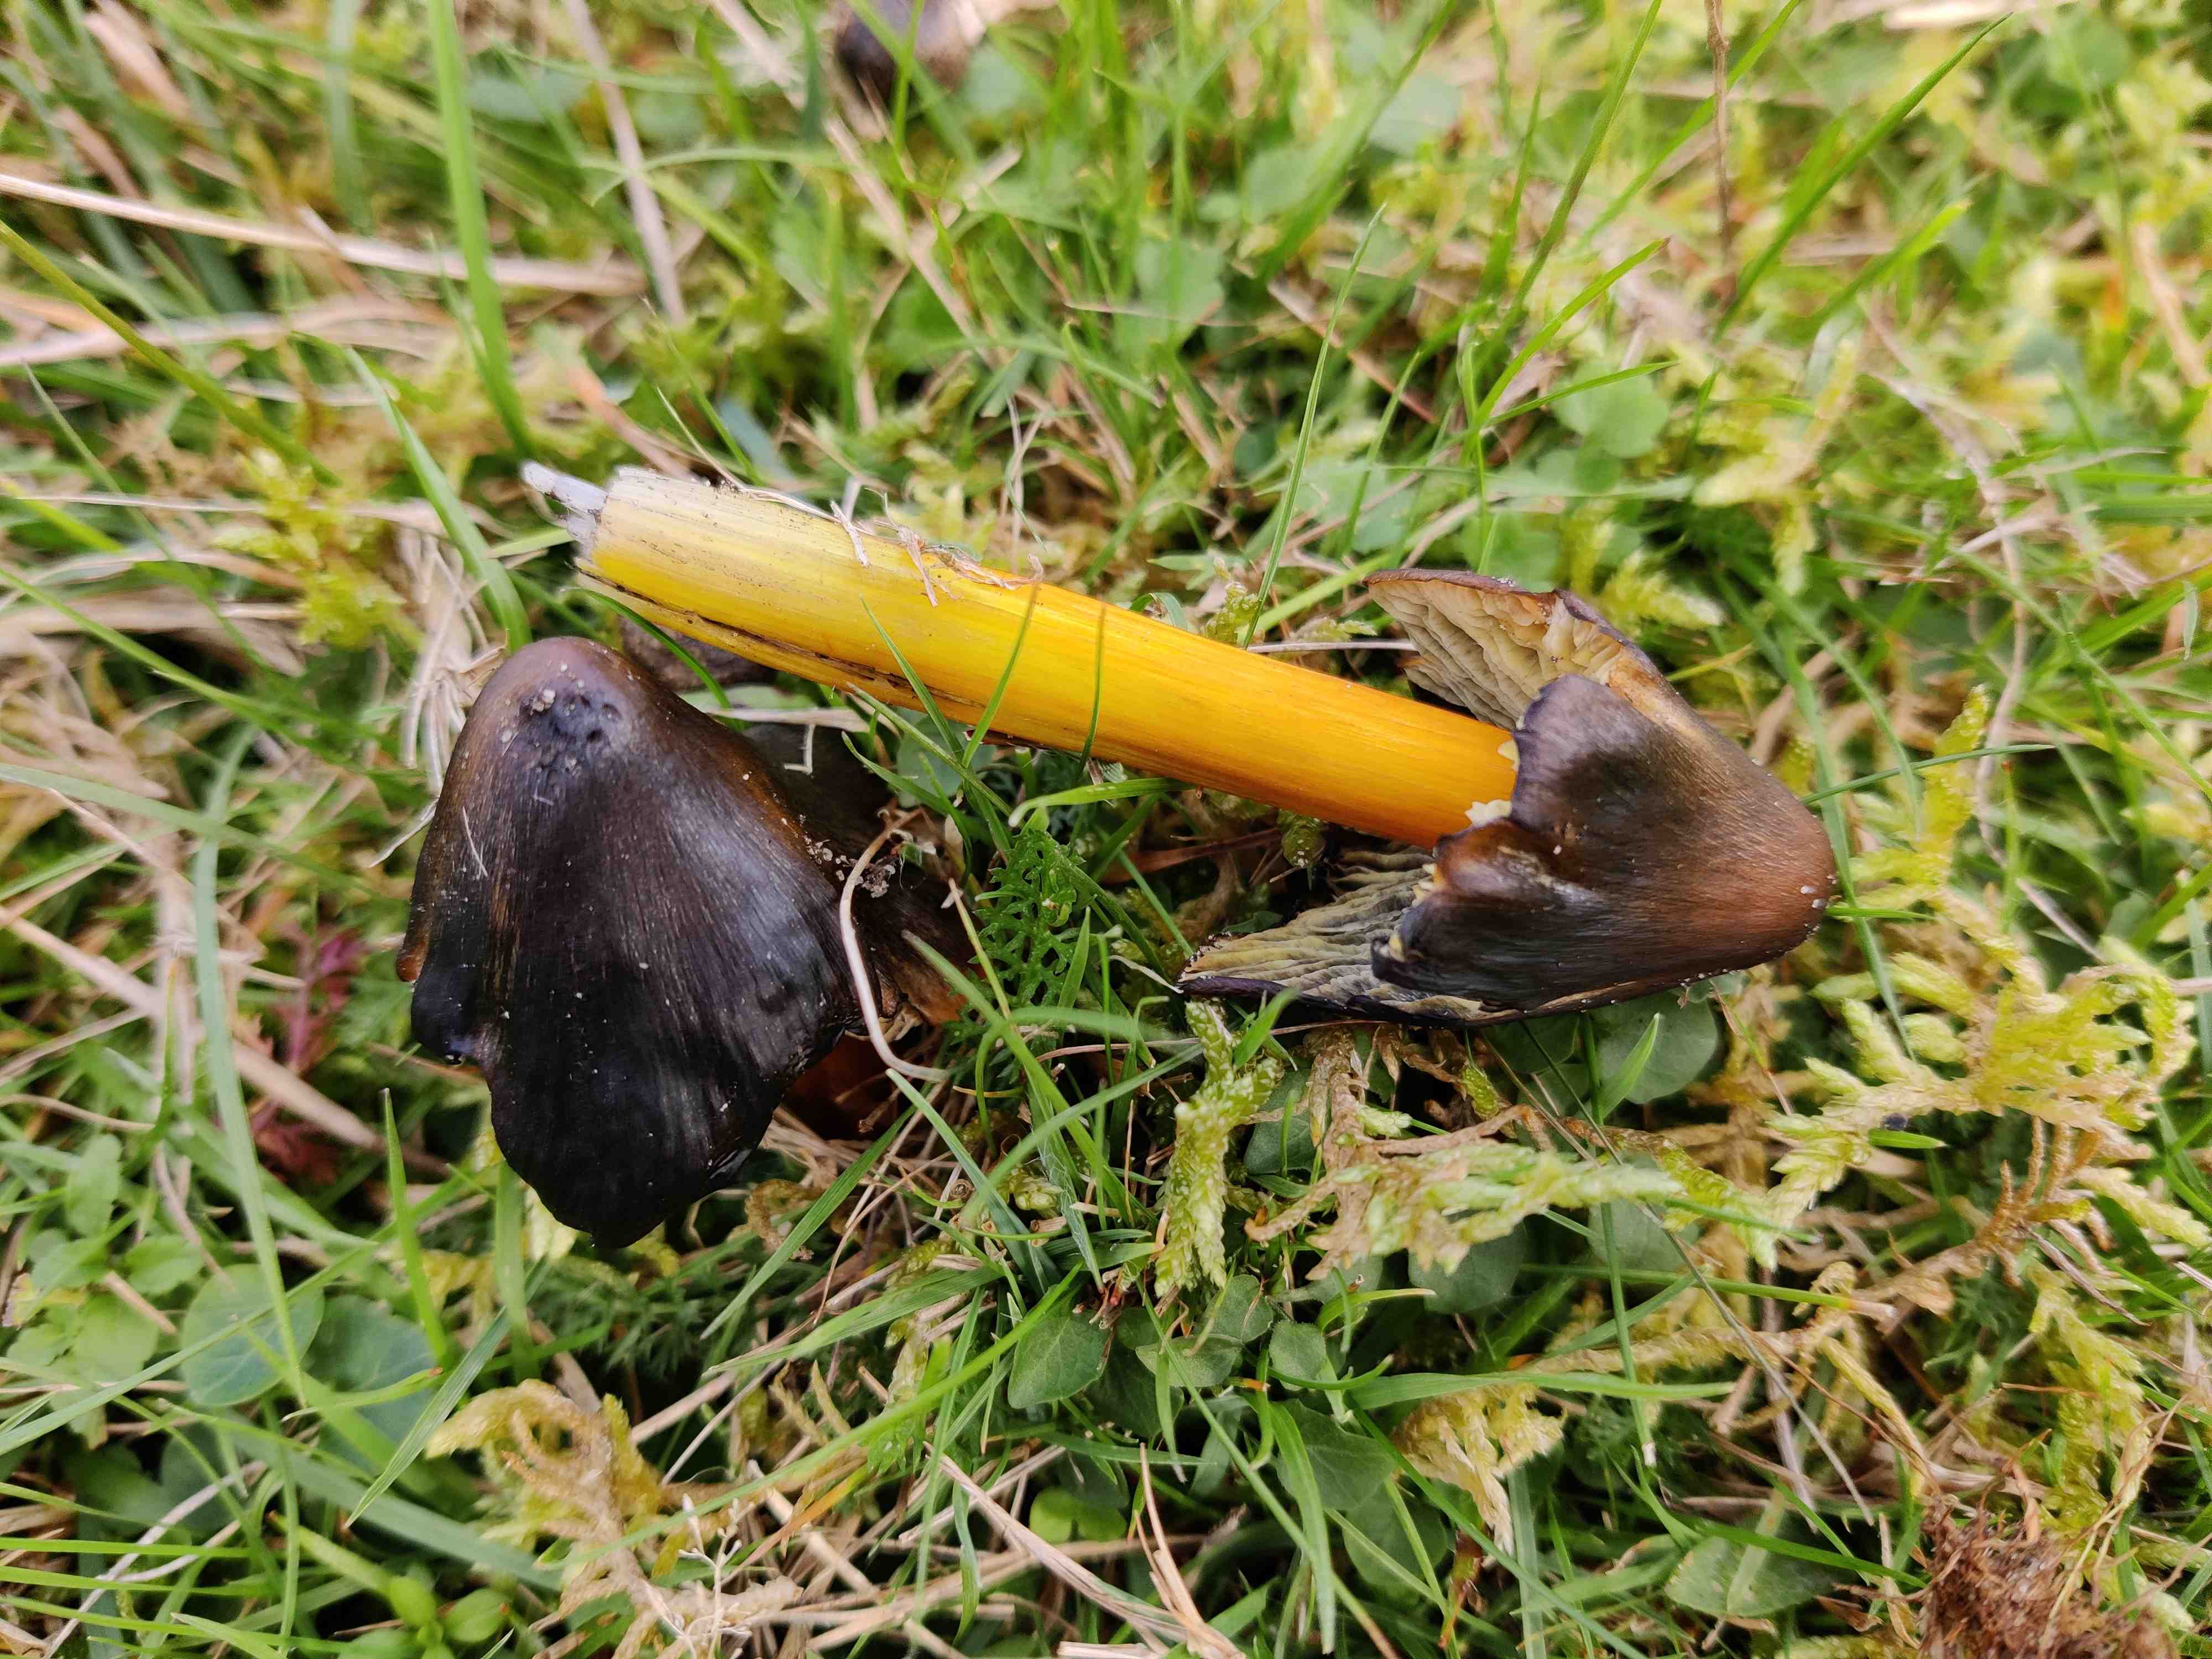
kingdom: Fungi
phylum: Basidiomycota
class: Agaricomycetes
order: Agaricales
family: Hygrophoraceae
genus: Hygrocybe
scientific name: Hygrocybe conica
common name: kegle-vokshat
